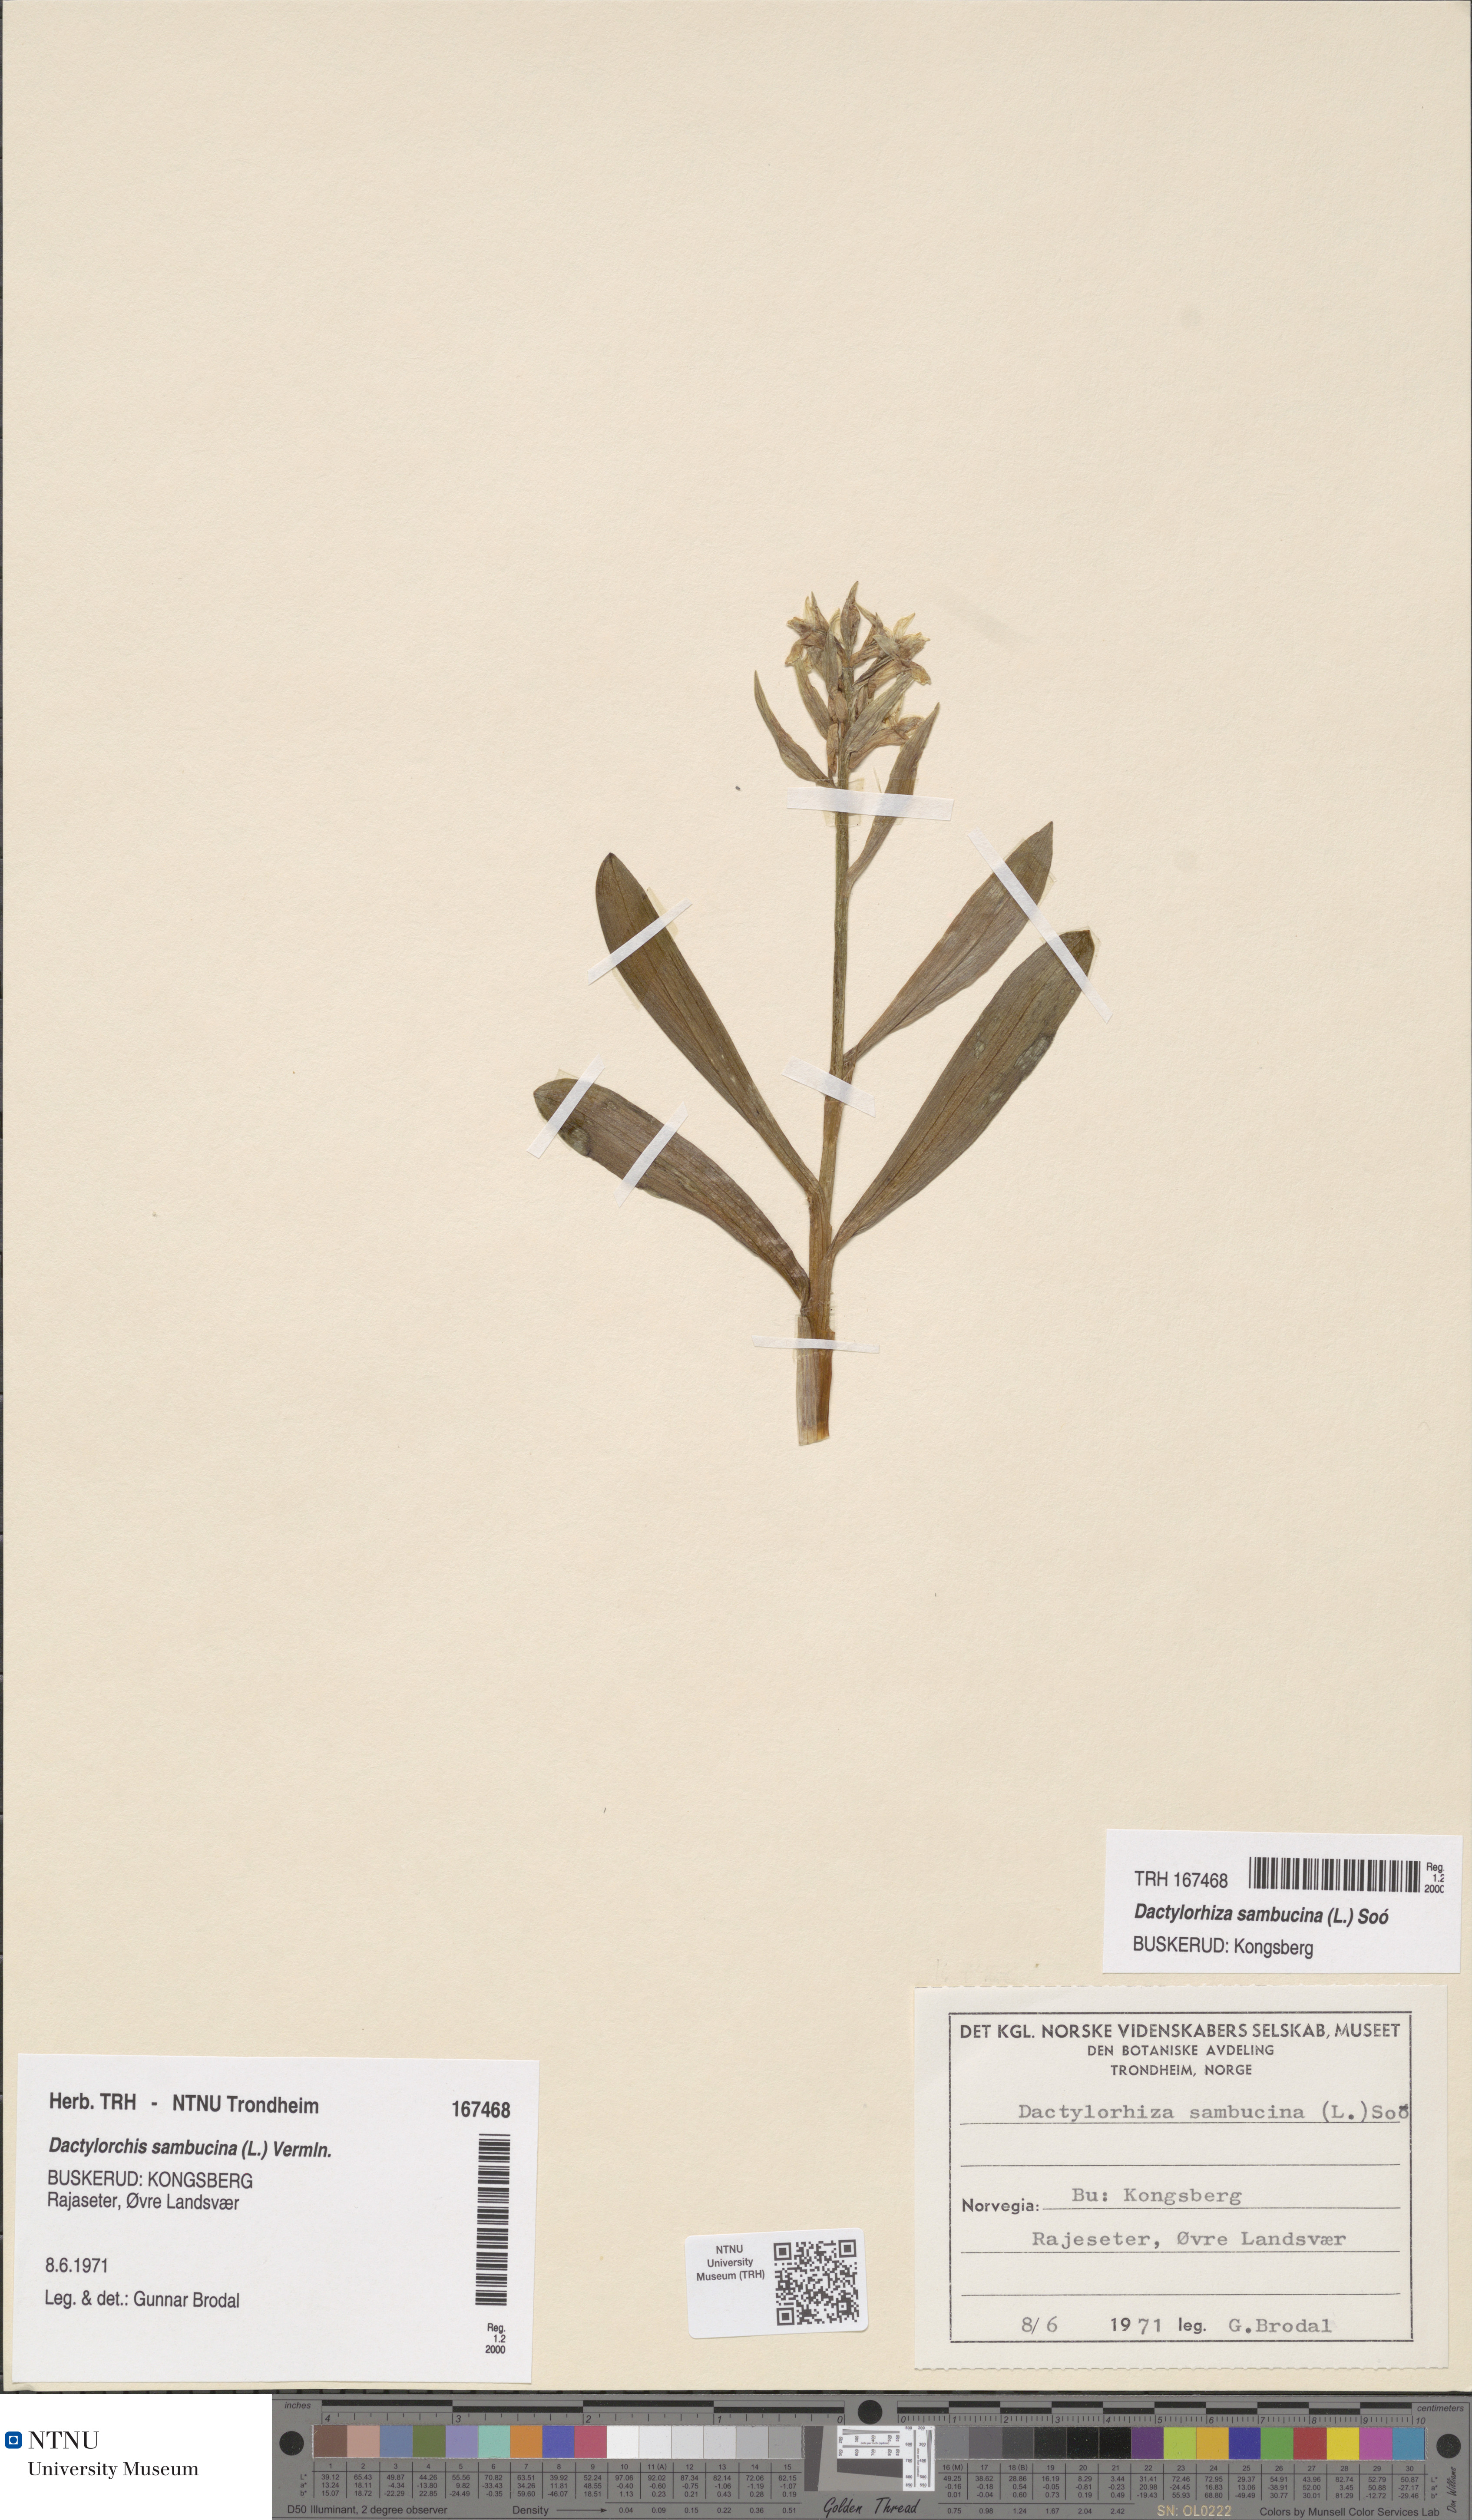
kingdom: Plantae
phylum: Tracheophyta
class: Liliopsida
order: Asparagales
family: Orchidaceae
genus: Dactylorhiza
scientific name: Dactylorhiza sambucina
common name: Elder-flowered orchid
